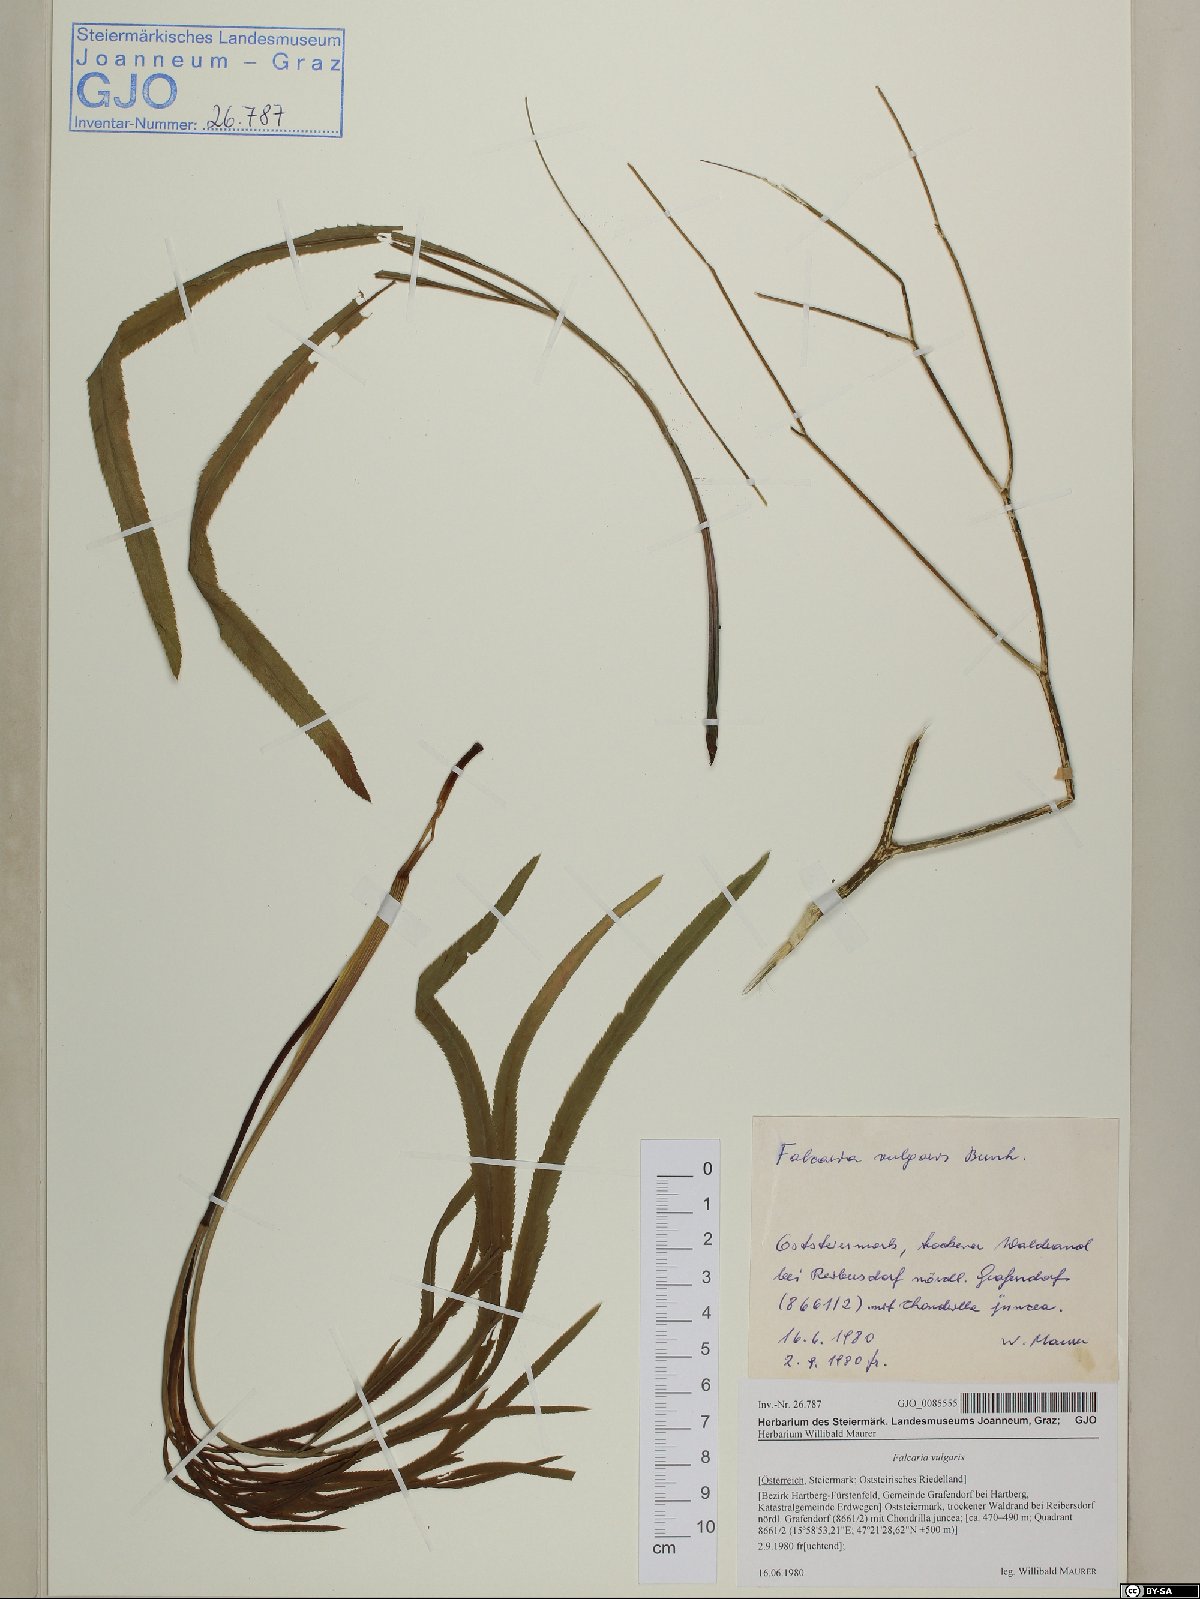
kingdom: Plantae
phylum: Tracheophyta
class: Magnoliopsida
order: Apiales
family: Apiaceae
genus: Falcaria
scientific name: Falcaria vulgaris
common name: Longleaf
